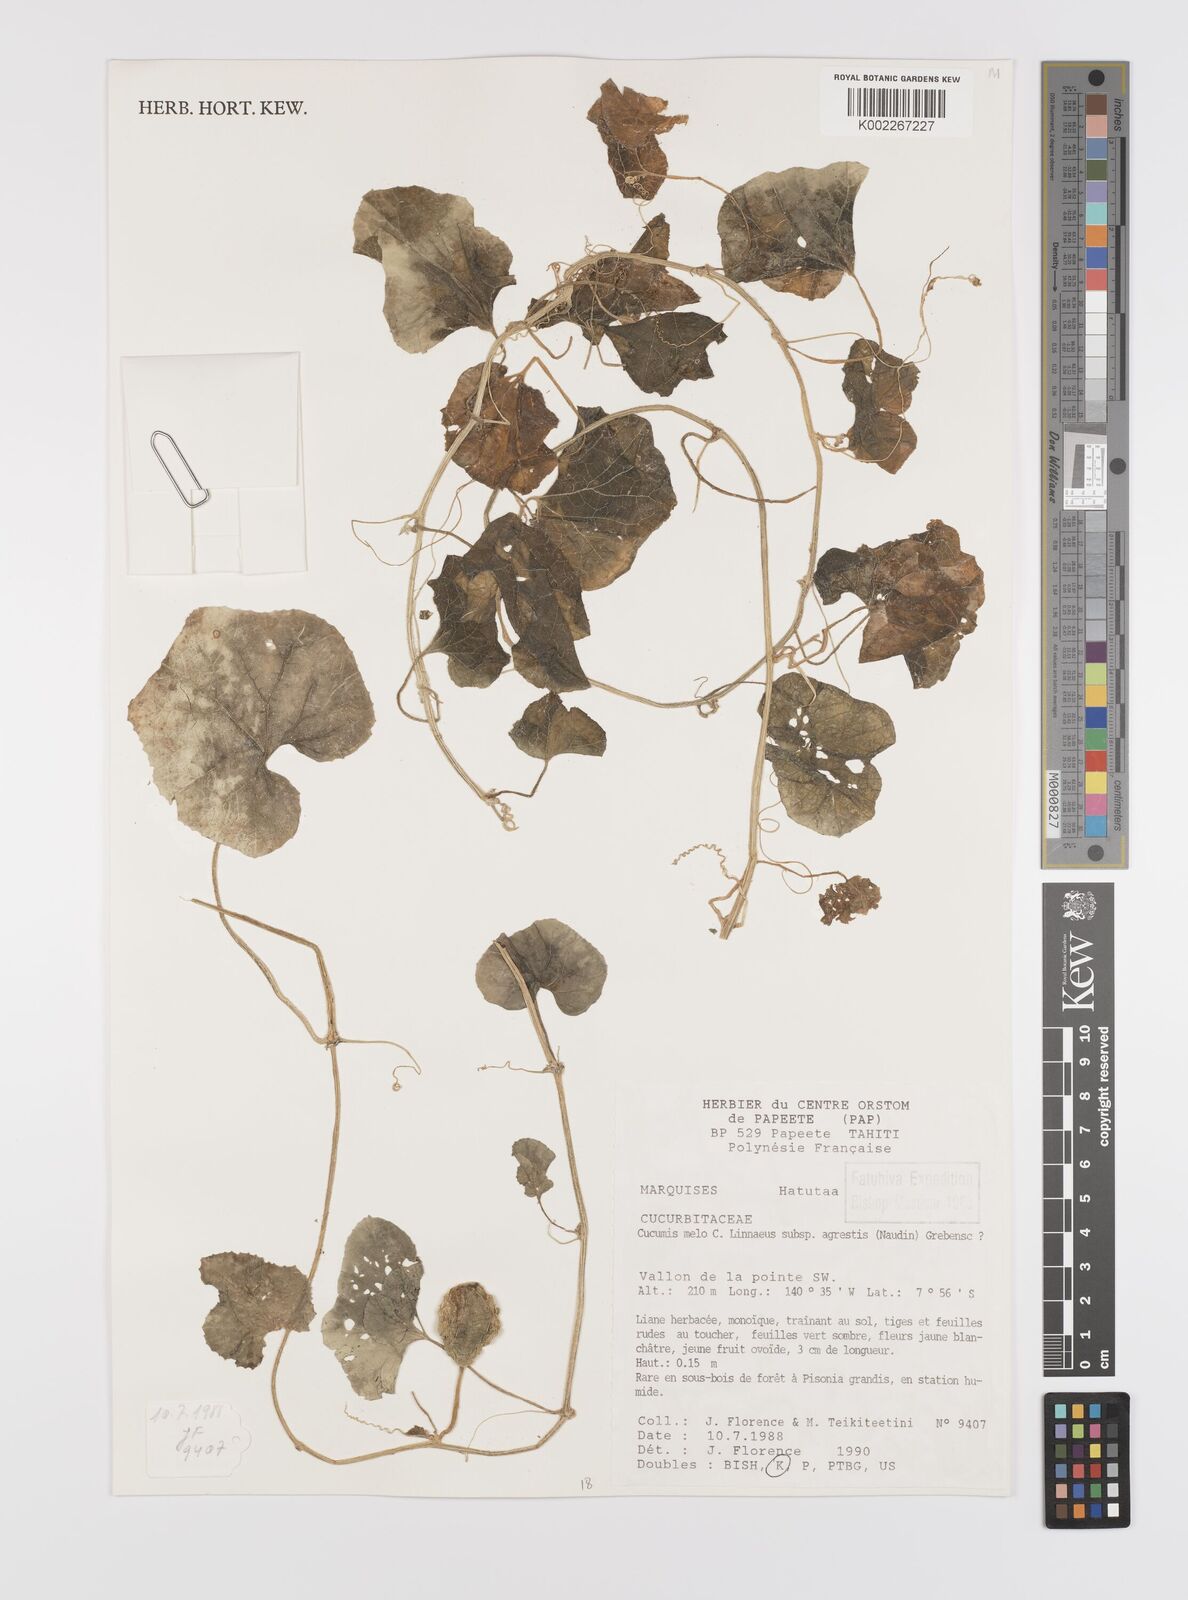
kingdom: Plantae
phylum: Tracheophyta
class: Magnoliopsida
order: Cucurbitales
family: Cucurbitaceae
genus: Cucumis
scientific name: Cucumis melo
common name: Melon
